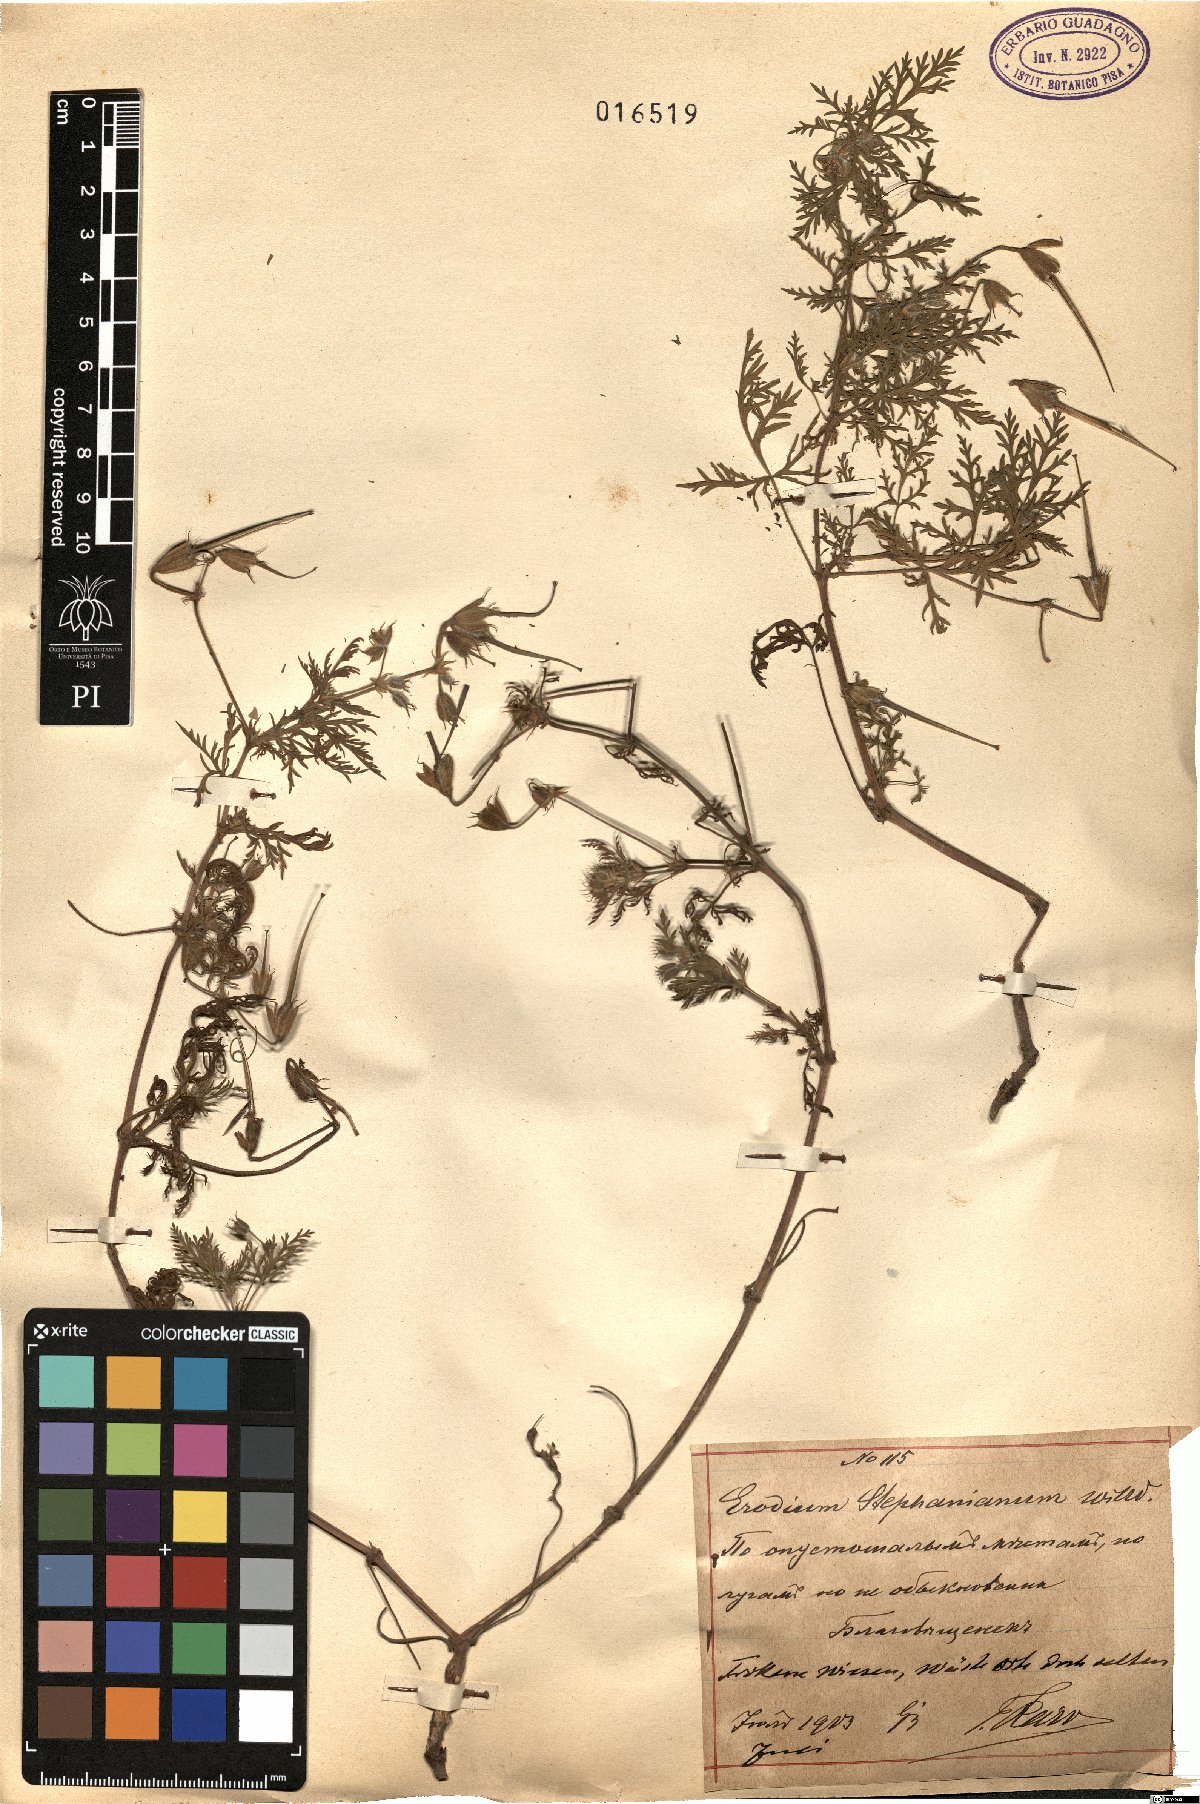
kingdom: Plantae
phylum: Tracheophyta
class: Magnoliopsida
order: Geraniales
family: Geraniaceae
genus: Erodium
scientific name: Erodium stephanianum
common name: Stephen's stork's bill
